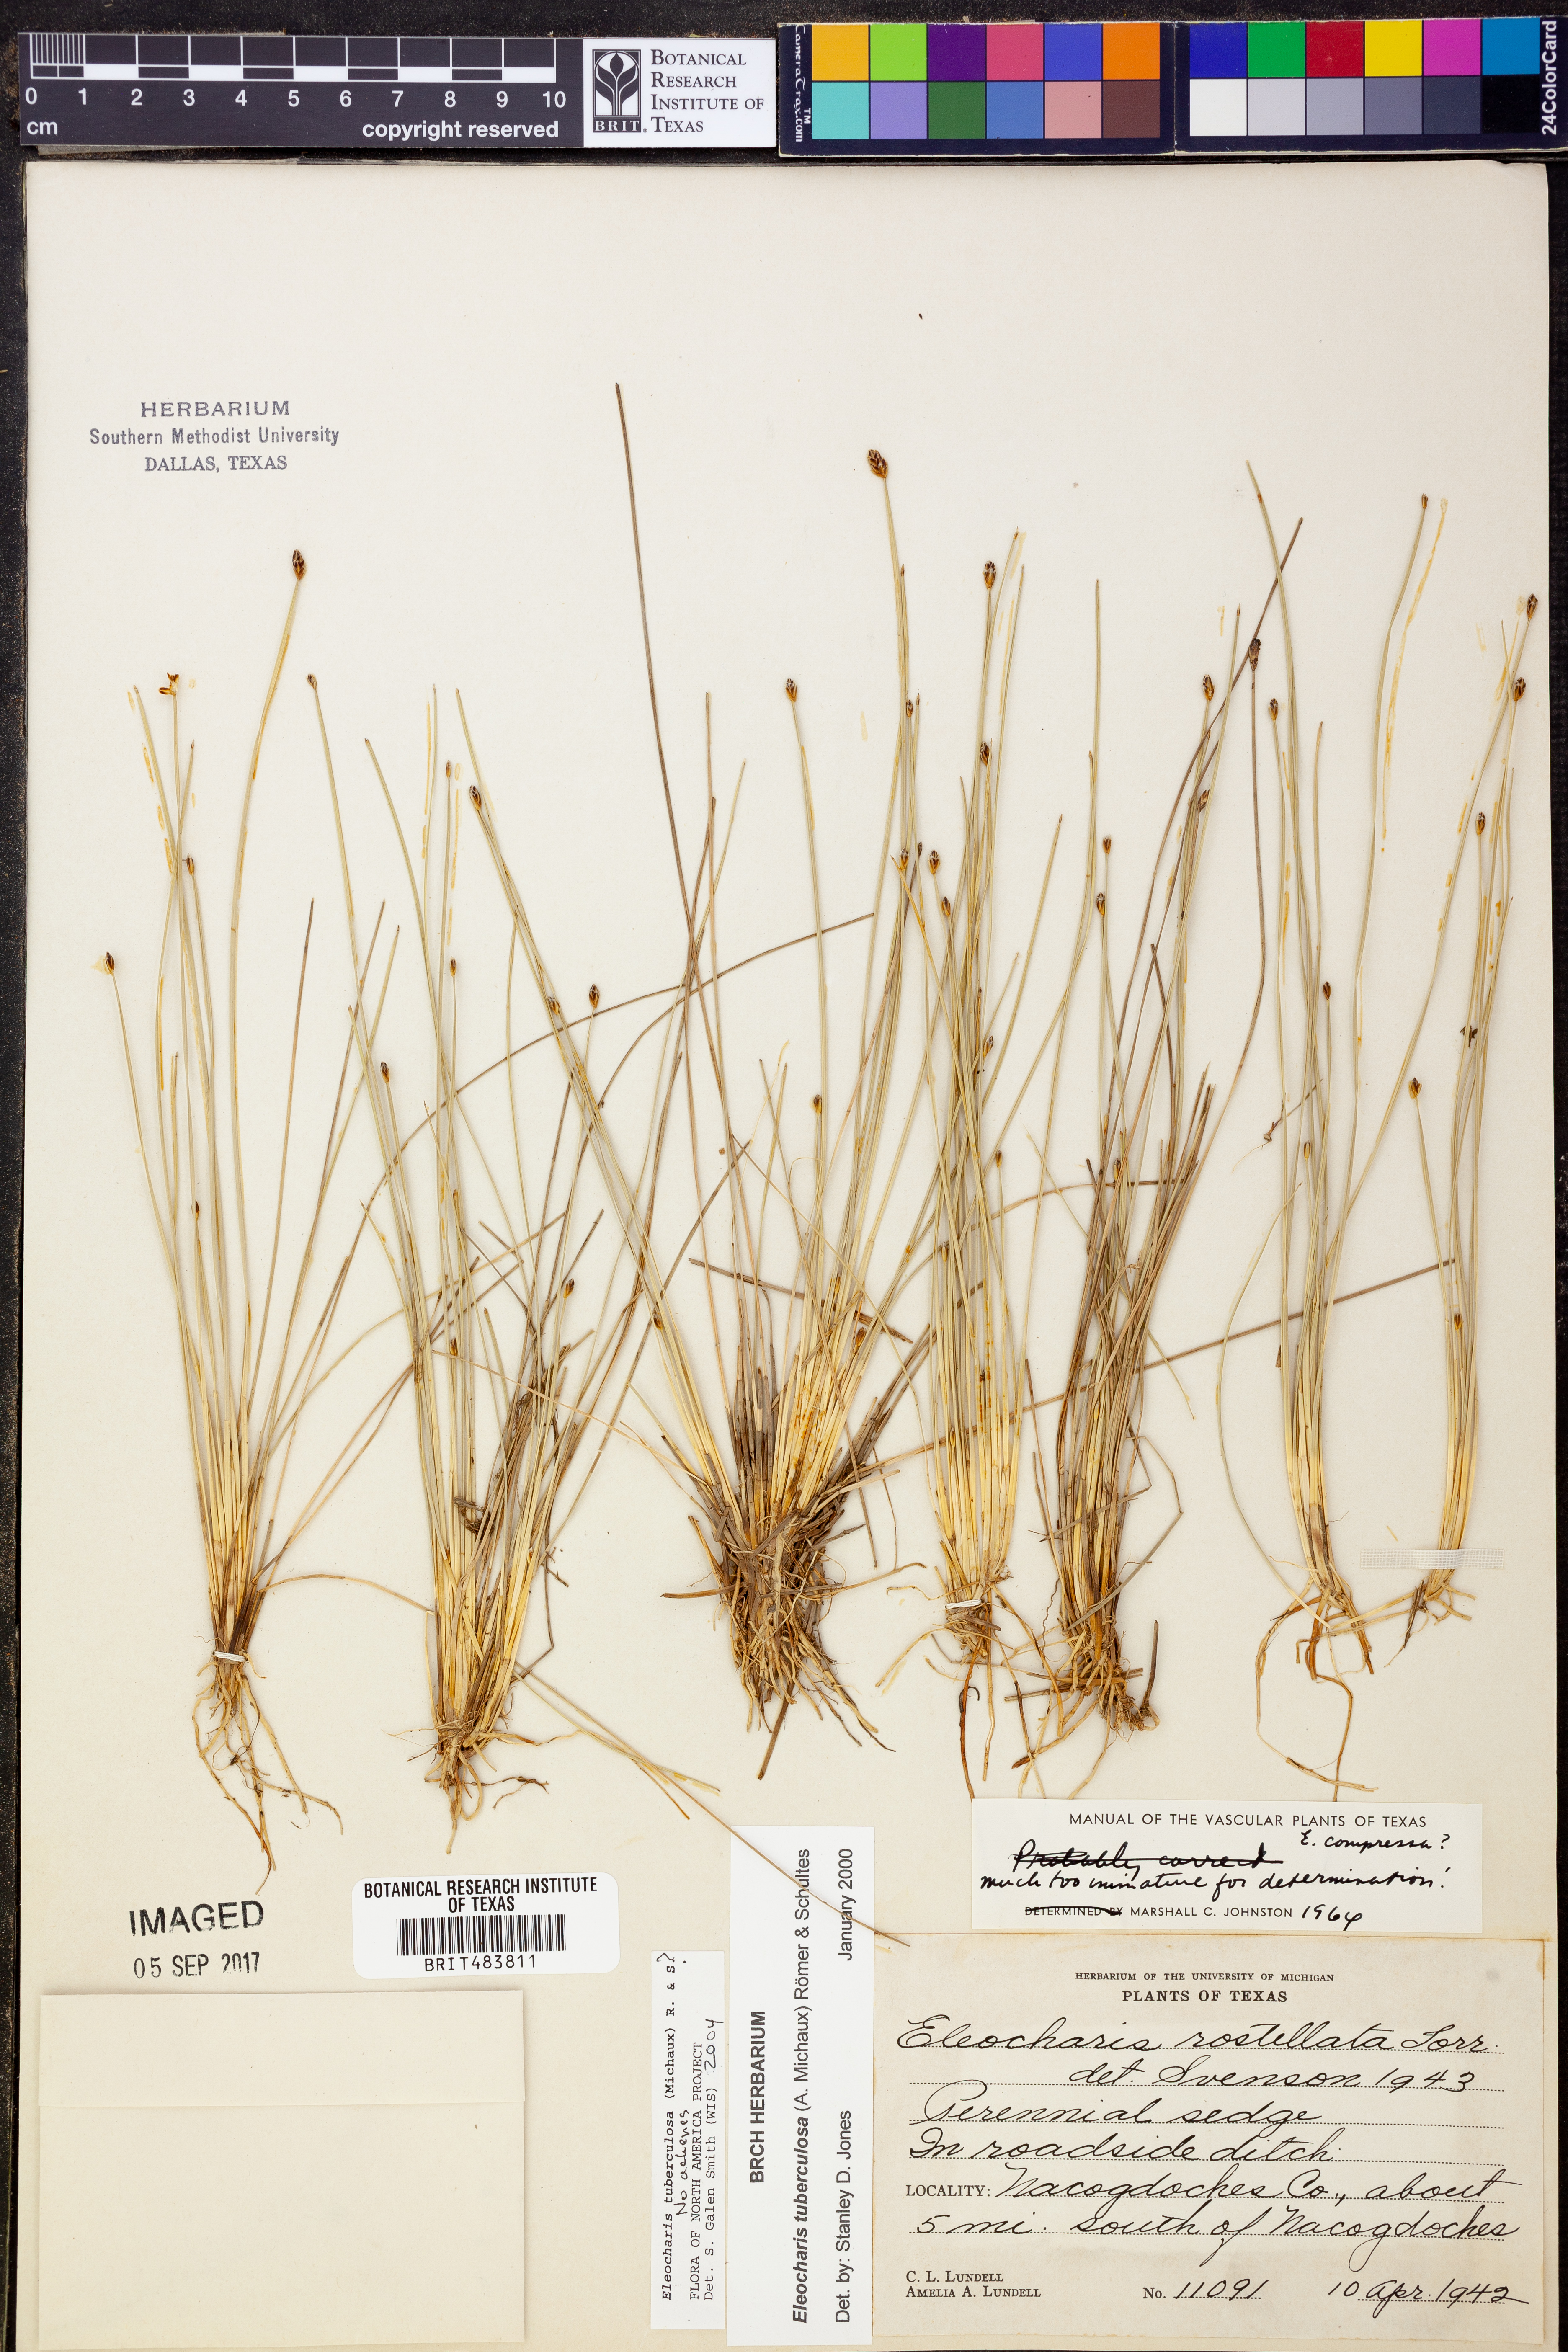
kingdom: Plantae
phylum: Tracheophyta
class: Liliopsida
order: Poales
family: Cyperaceae
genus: Eleocharis
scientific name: Eleocharis tuberculosa
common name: Cone-cup spikerush
